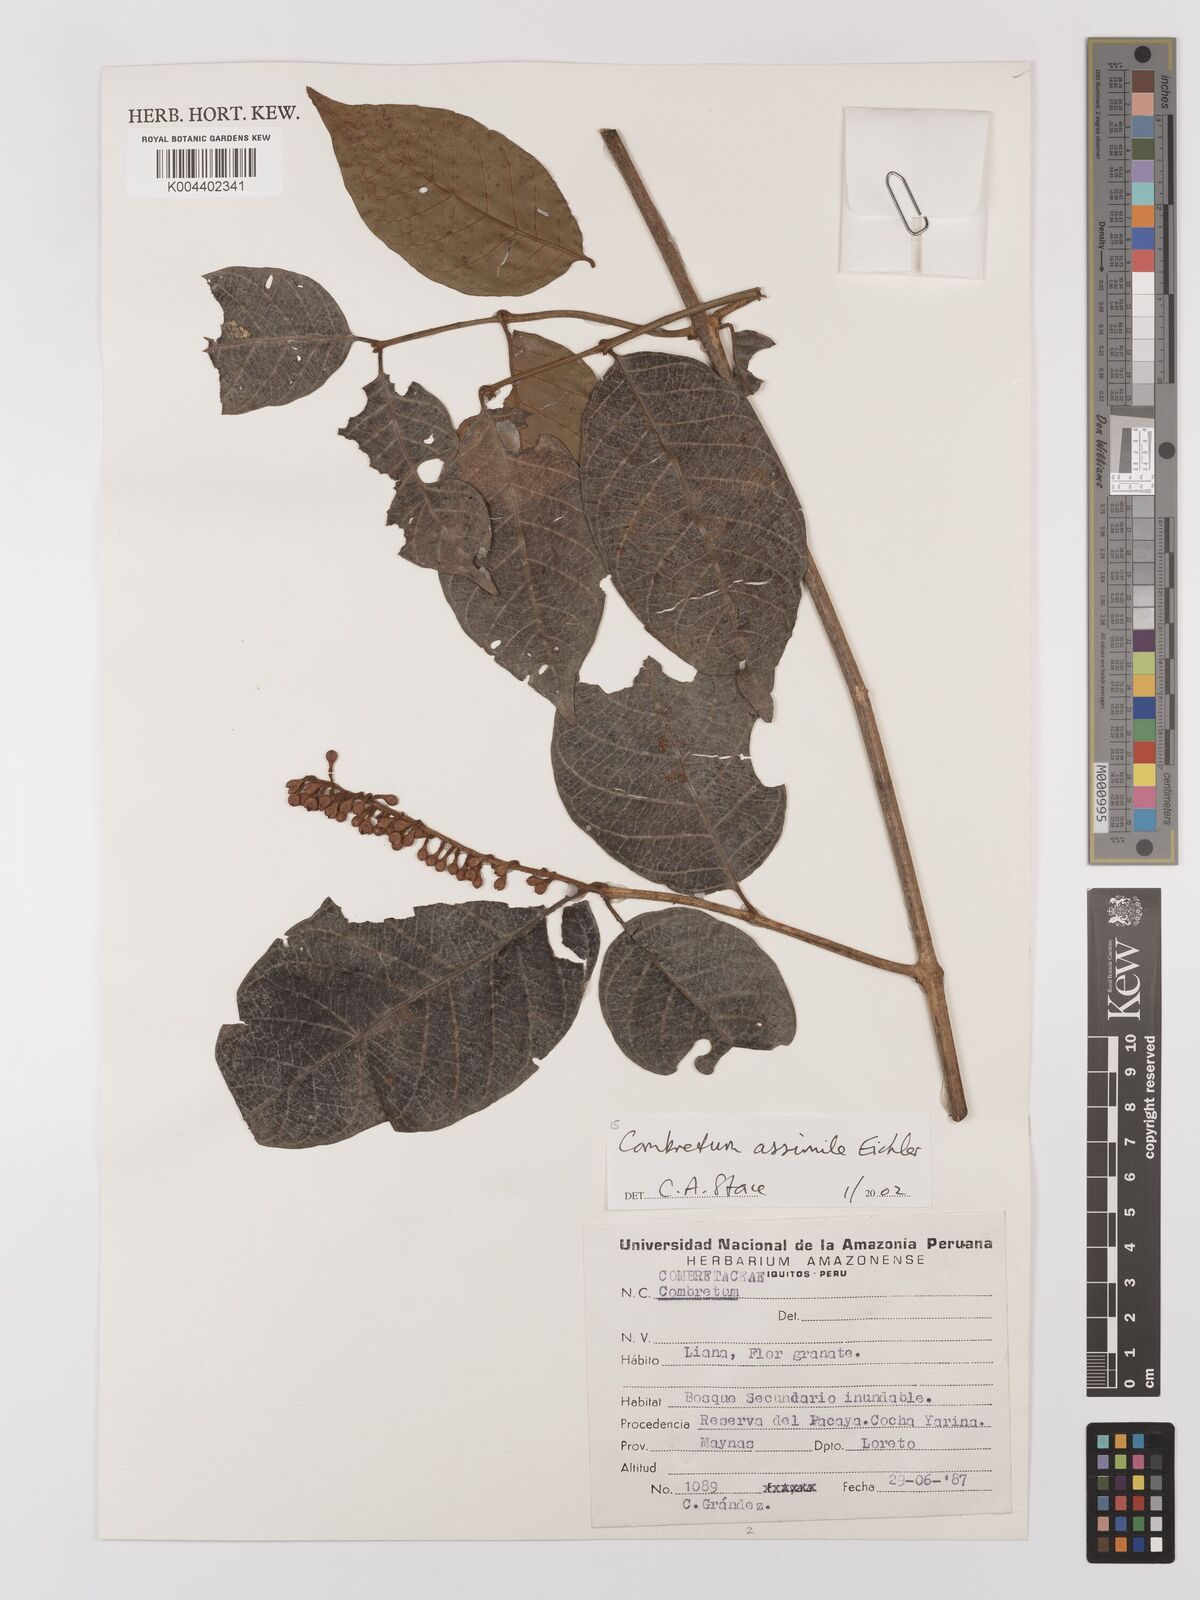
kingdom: Plantae
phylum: Tracheophyta
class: Magnoliopsida
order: Myrtales
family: Combretaceae
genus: Combretum
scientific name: Combretum assimile
